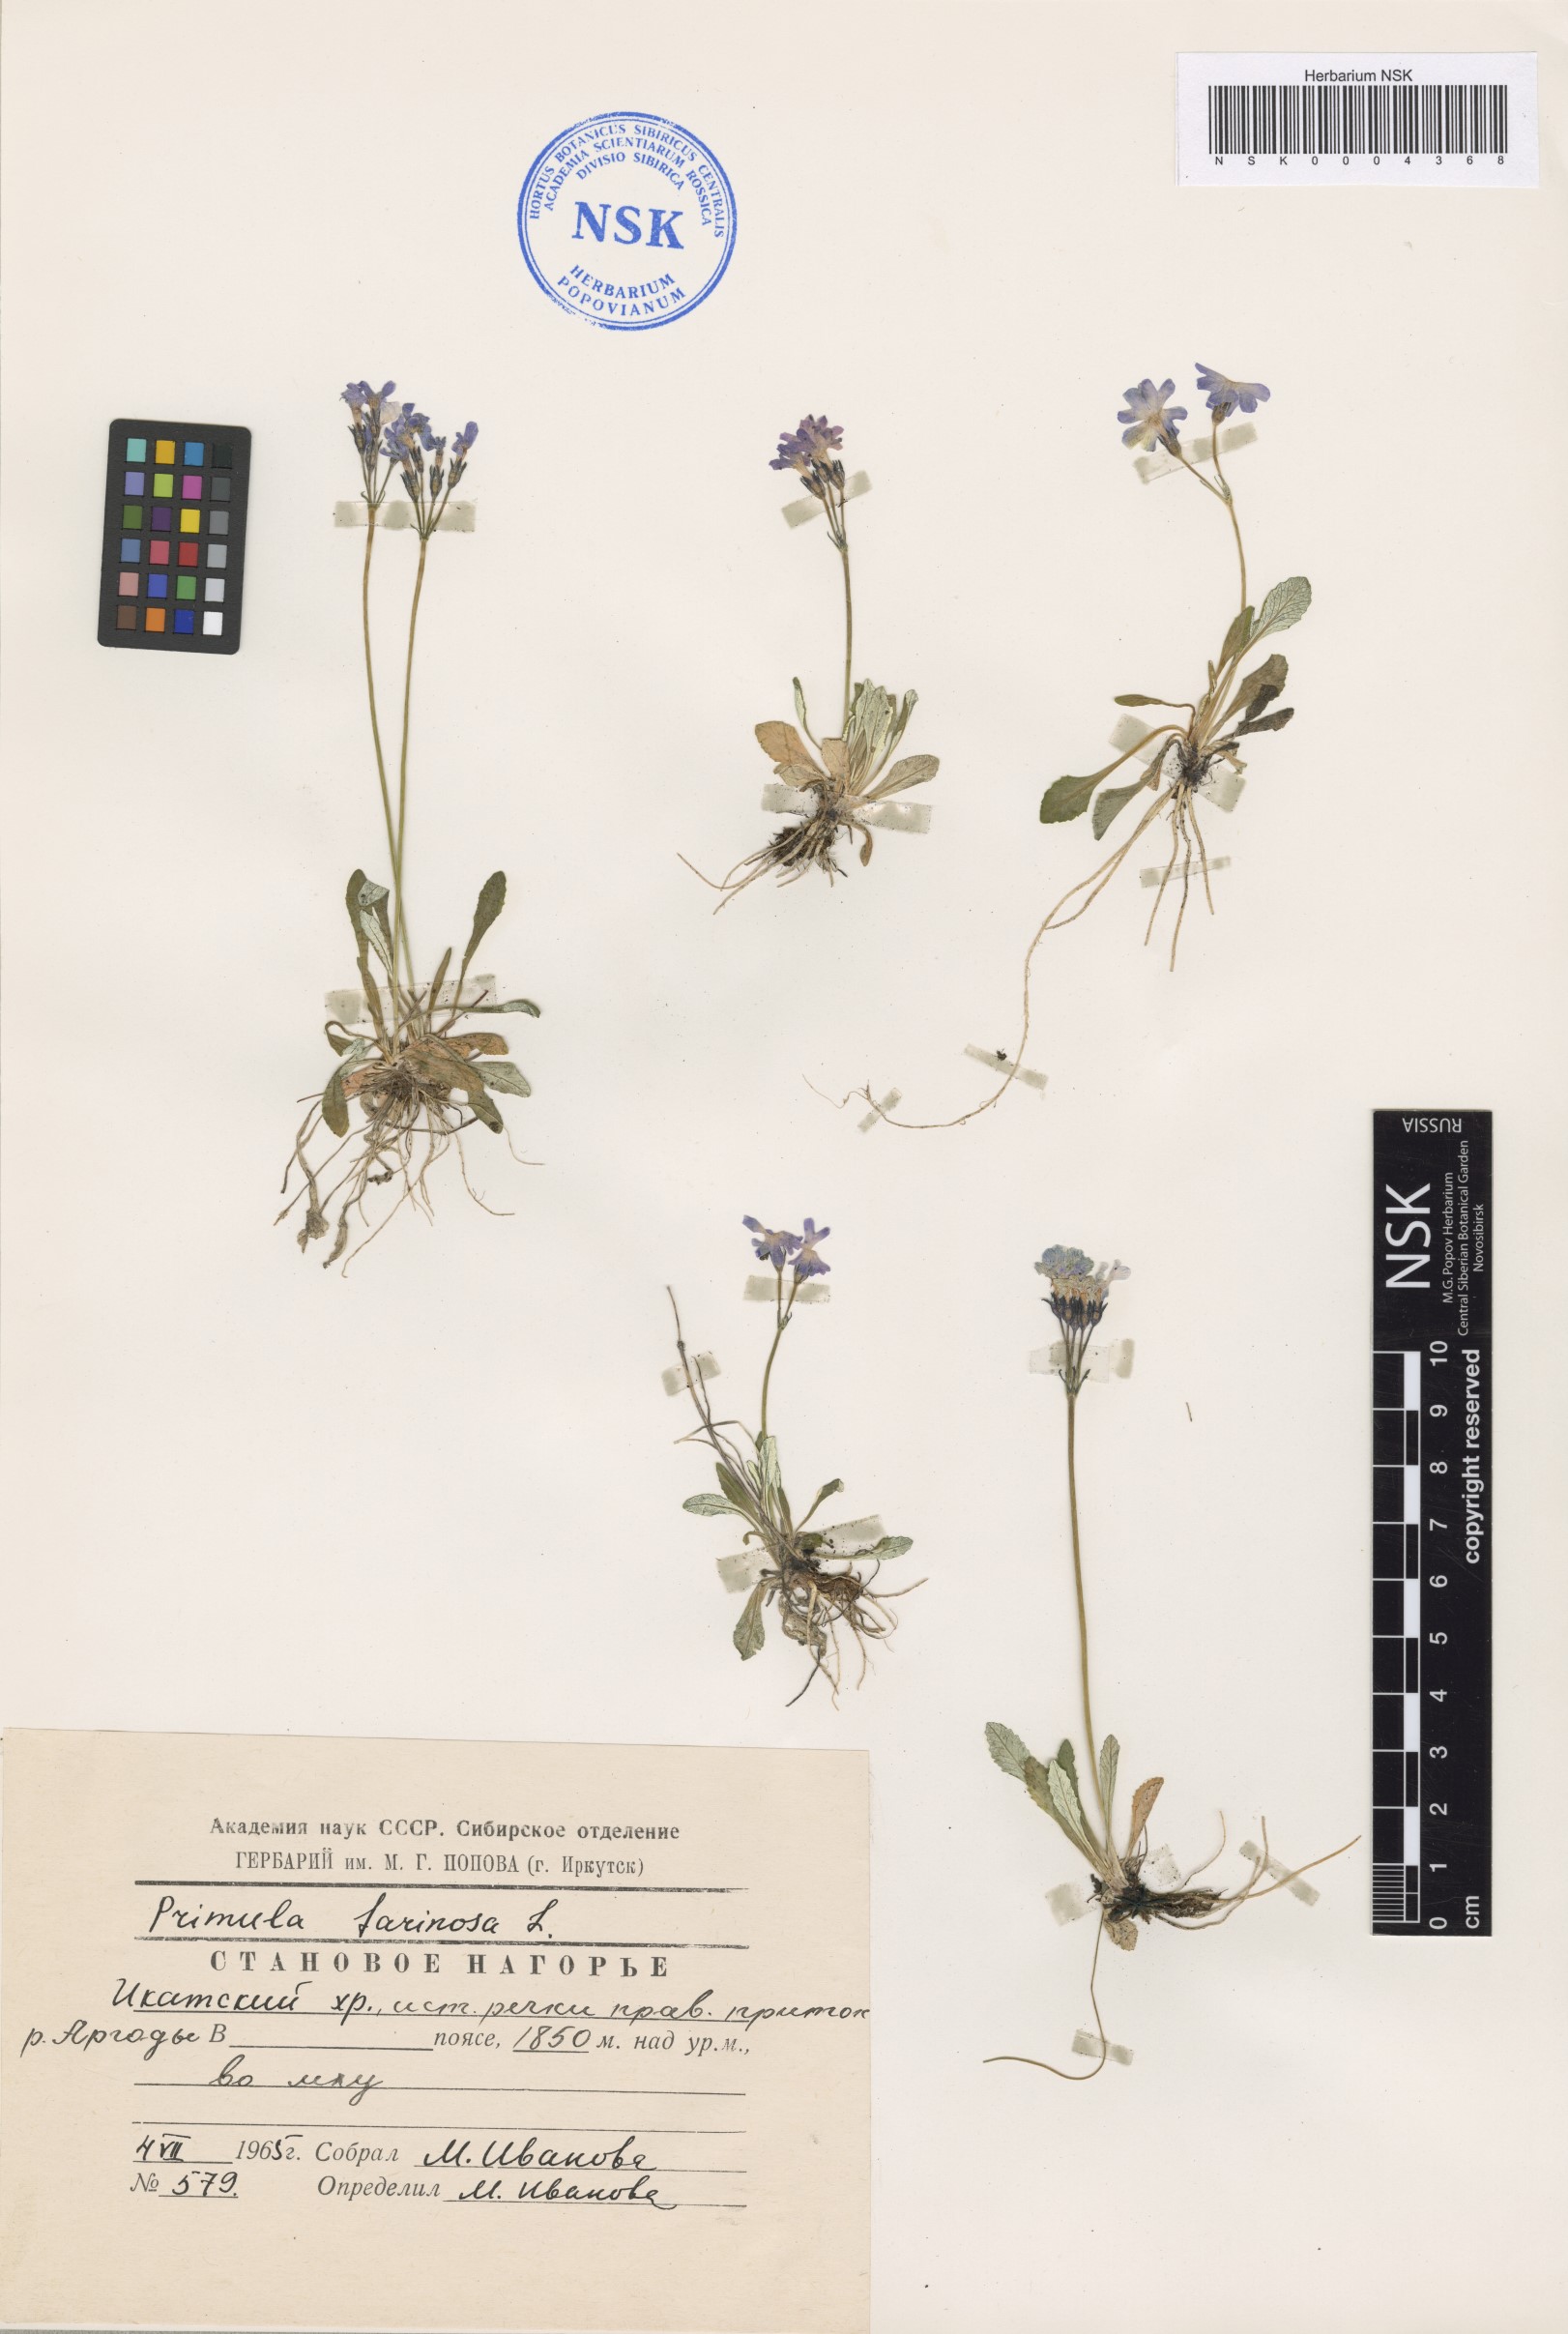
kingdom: Plantae
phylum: Tracheophyta
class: Magnoliopsida
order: Asterales
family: Asteraceae
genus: Taraxacum
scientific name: Taraxacum pseudonivale
